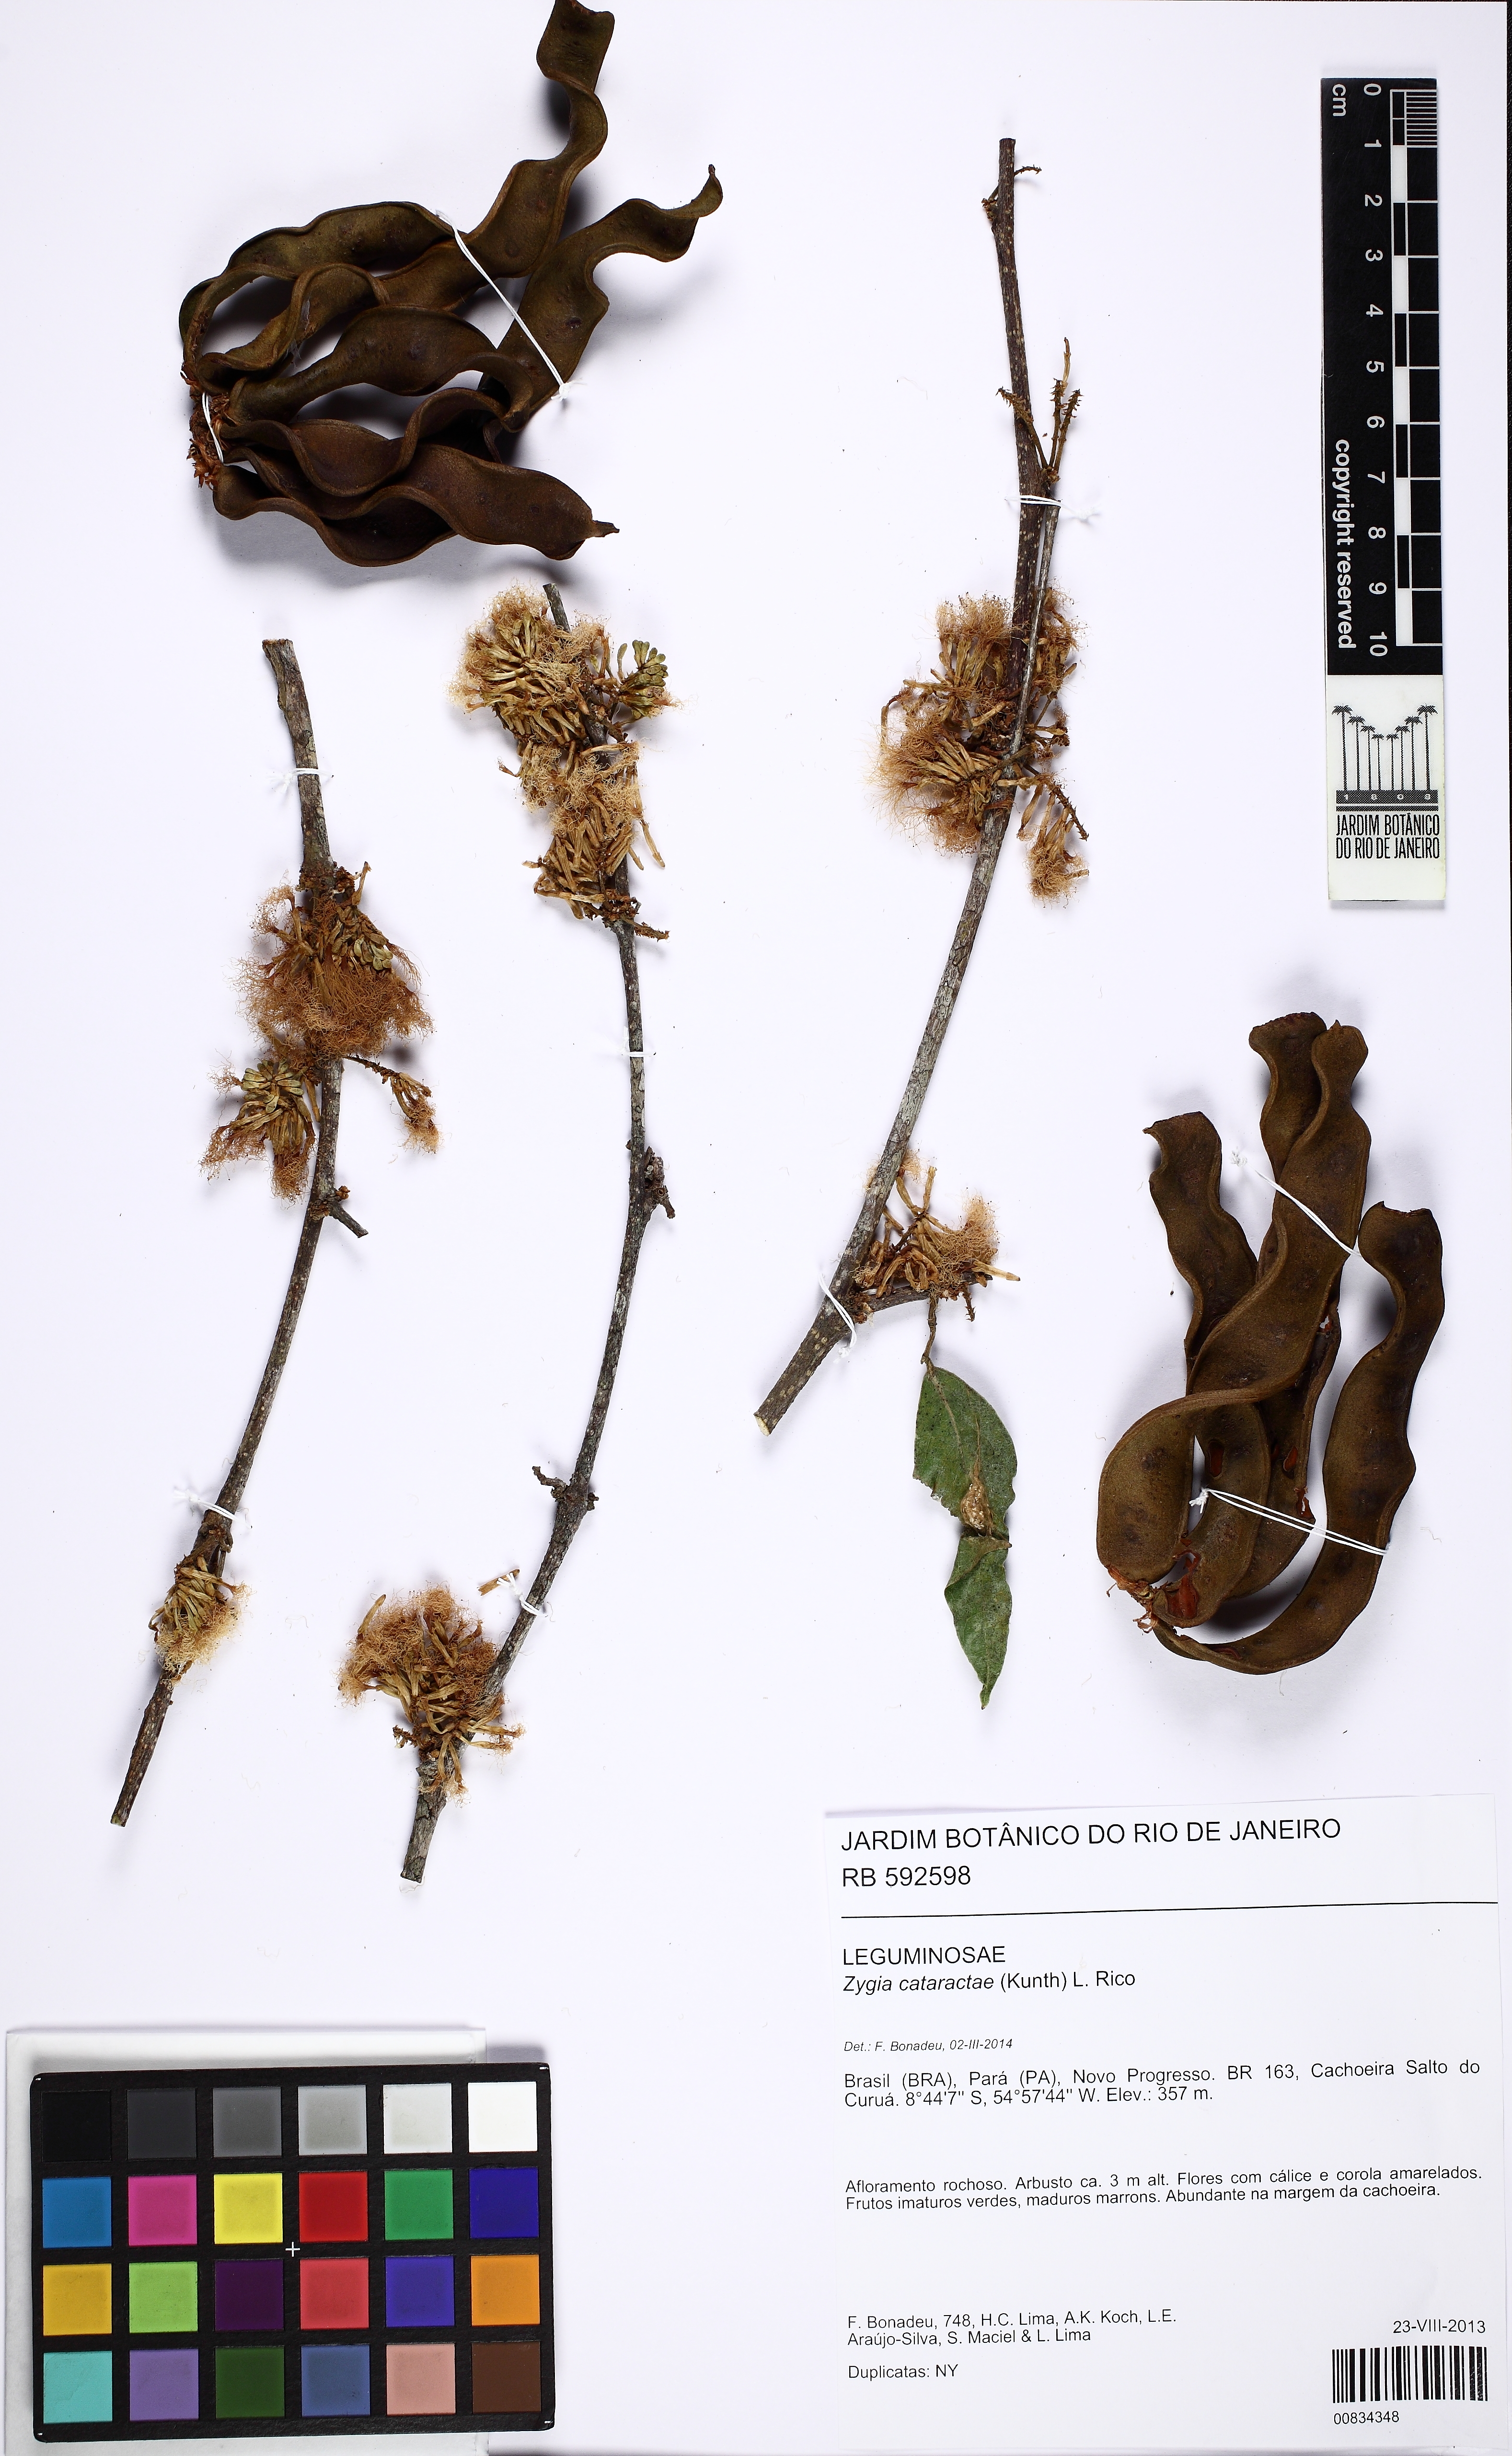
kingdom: Plantae
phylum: Tracheophyta
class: Magnoliopsida
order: Fabales
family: Fabaceae
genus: Zygia
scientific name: Zygia cataractae
